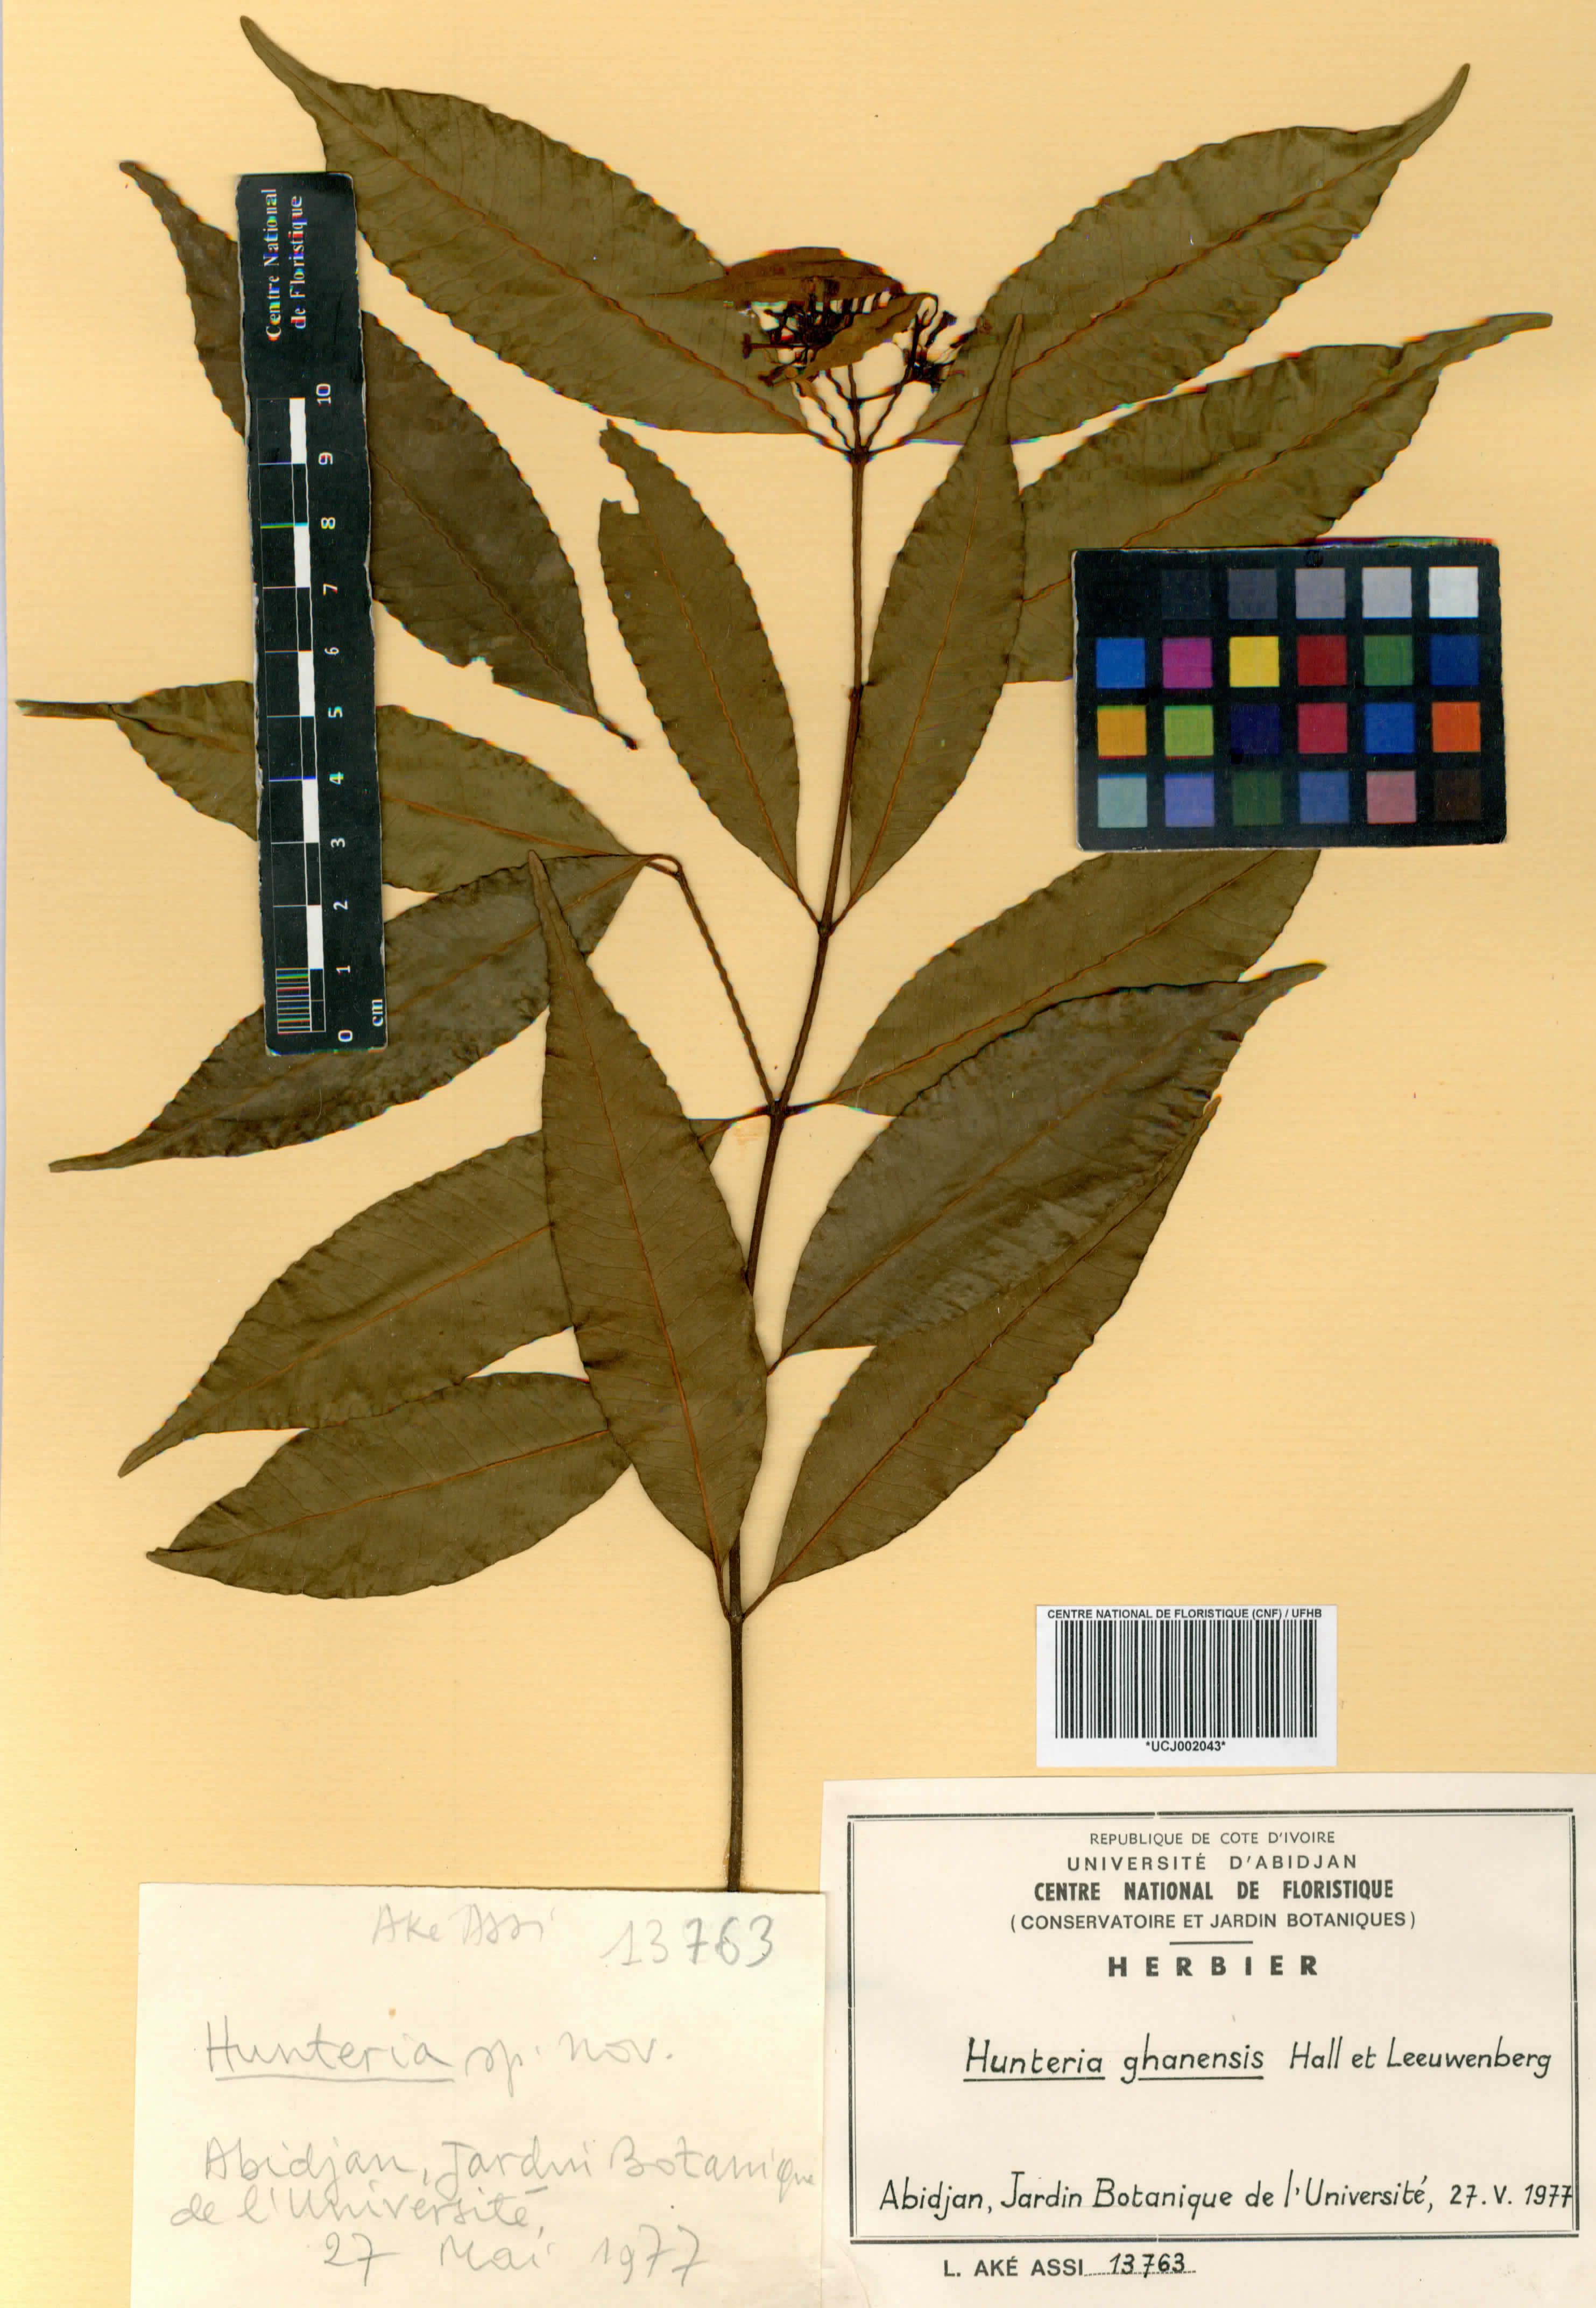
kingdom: Plantae
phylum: Tracheophyta
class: Magnoliopsida
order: Gentianales
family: Apocynaceae
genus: Hunteria
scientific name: Hunteria ghanensis
